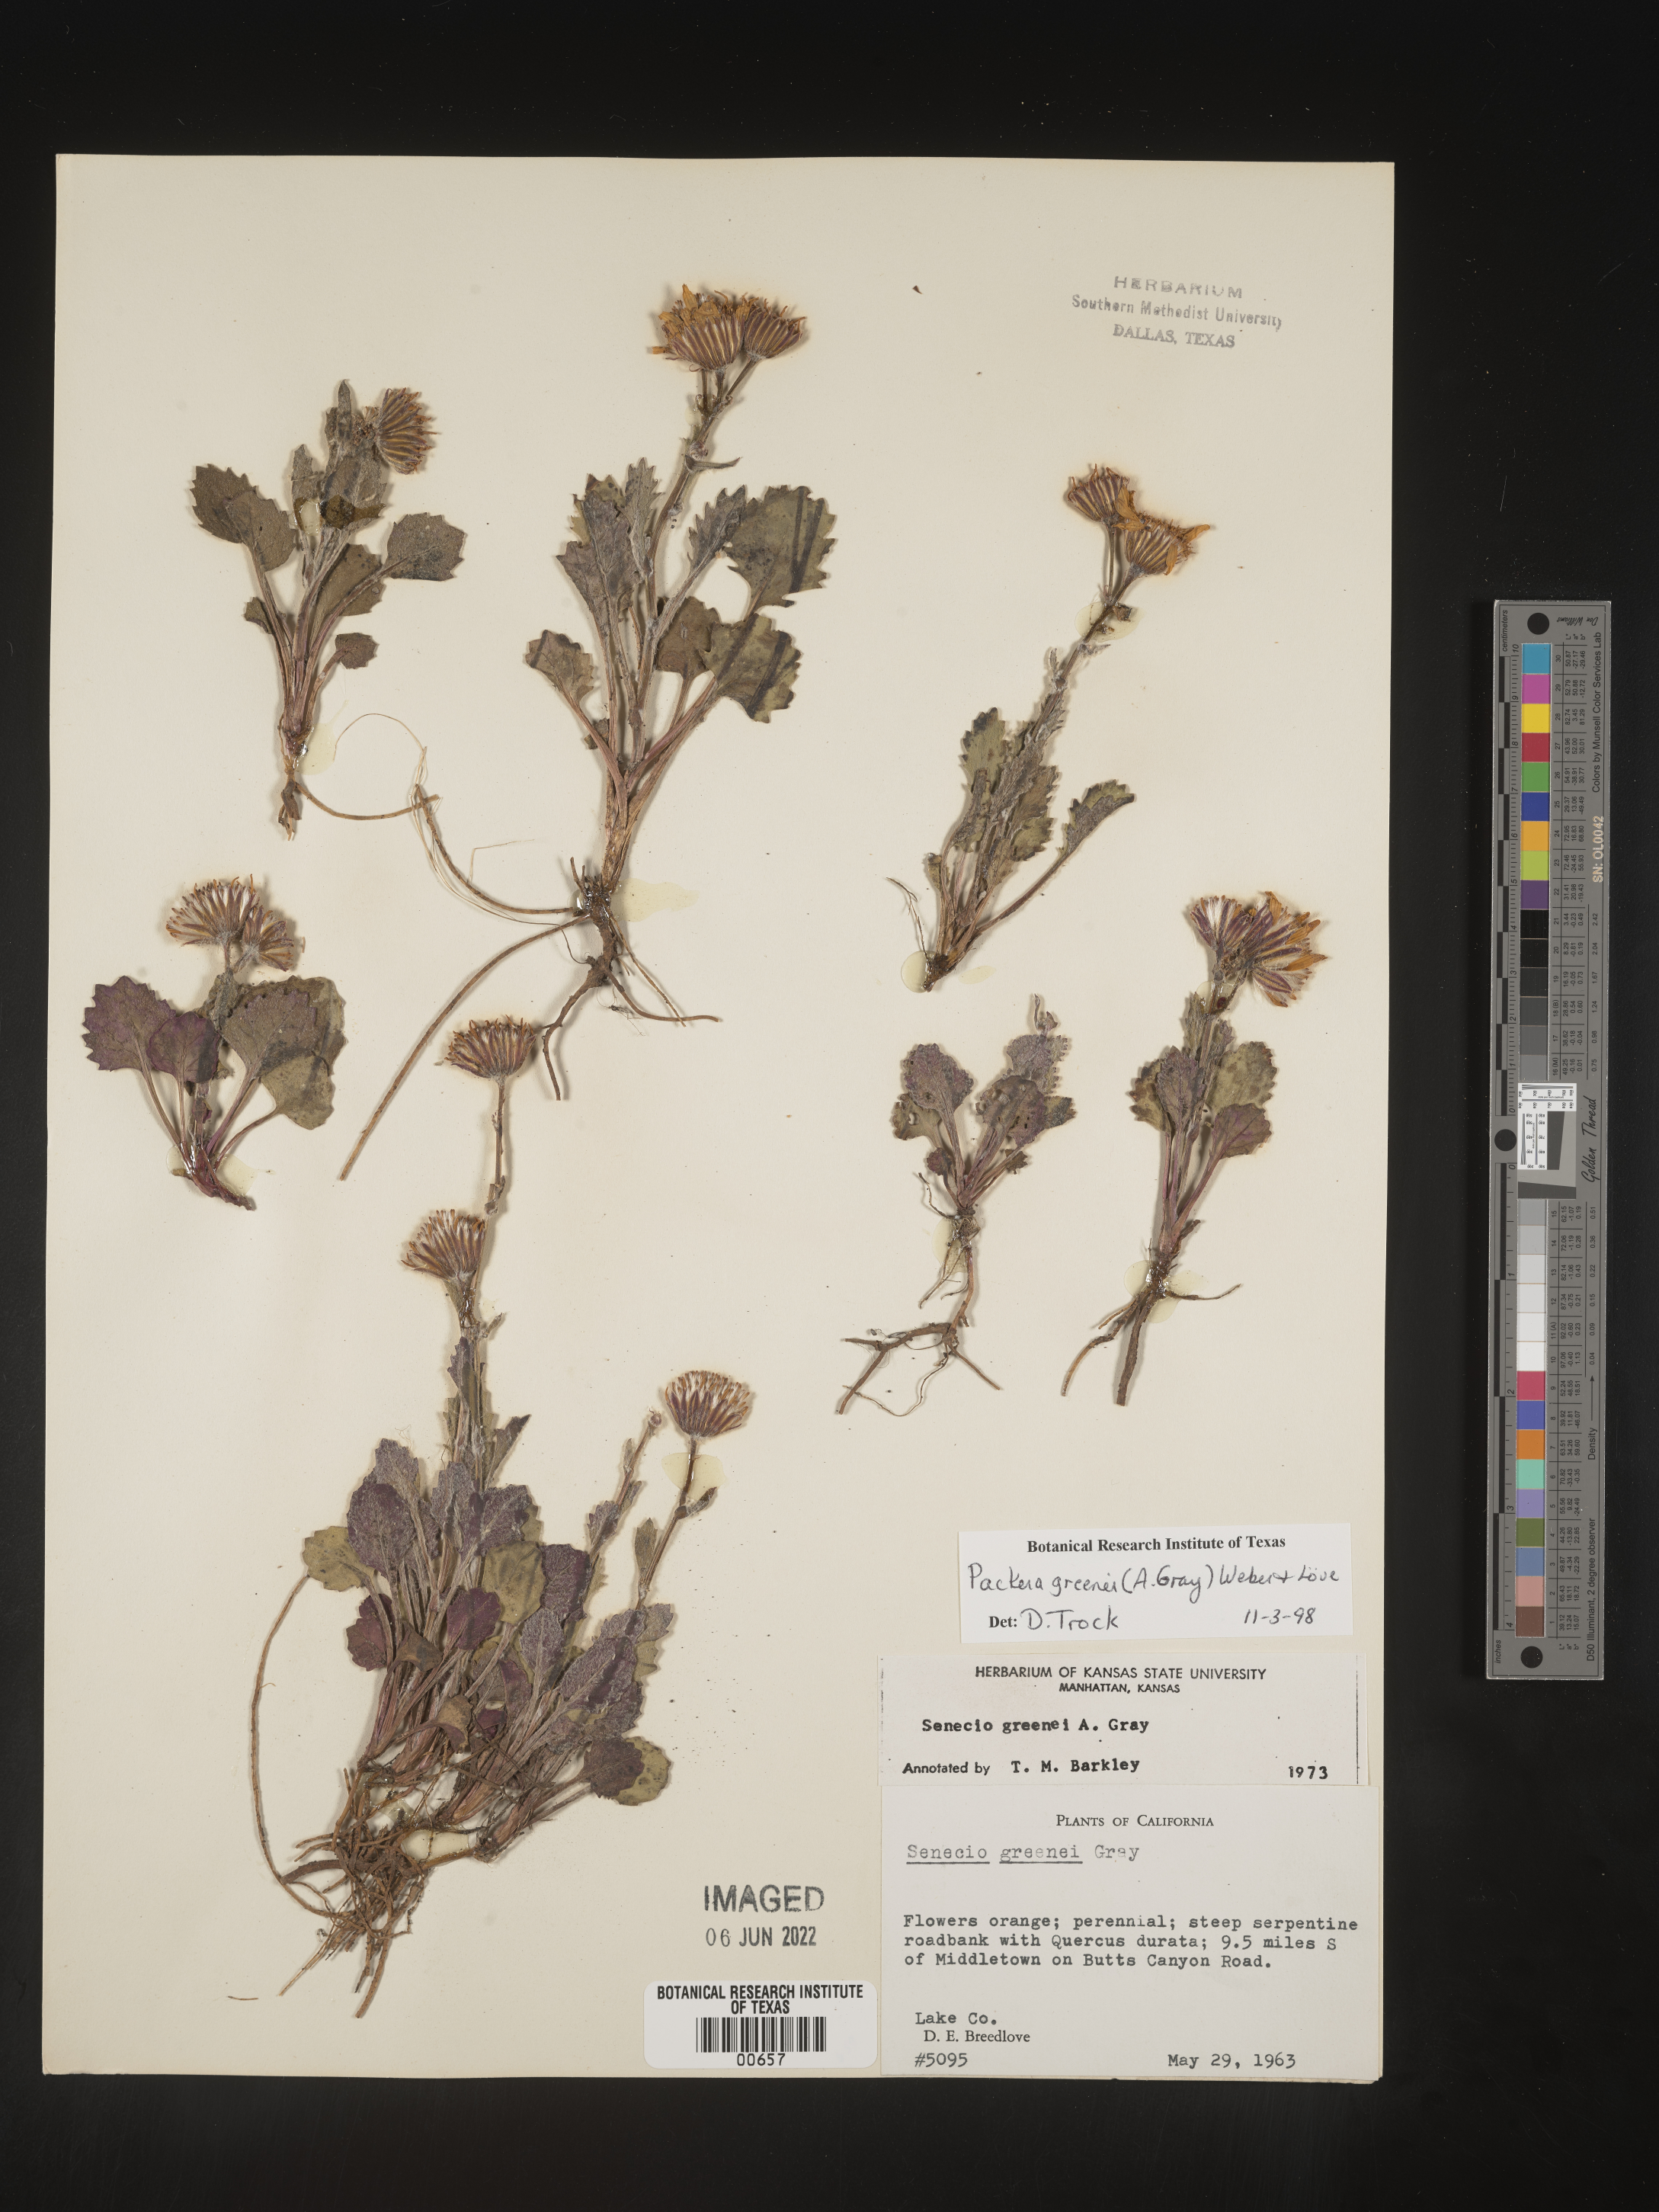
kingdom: Plantae
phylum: Tracheophyta
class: Magnoliopsida
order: Asterales
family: Asteraceae
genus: Packera
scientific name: Packera greenei
